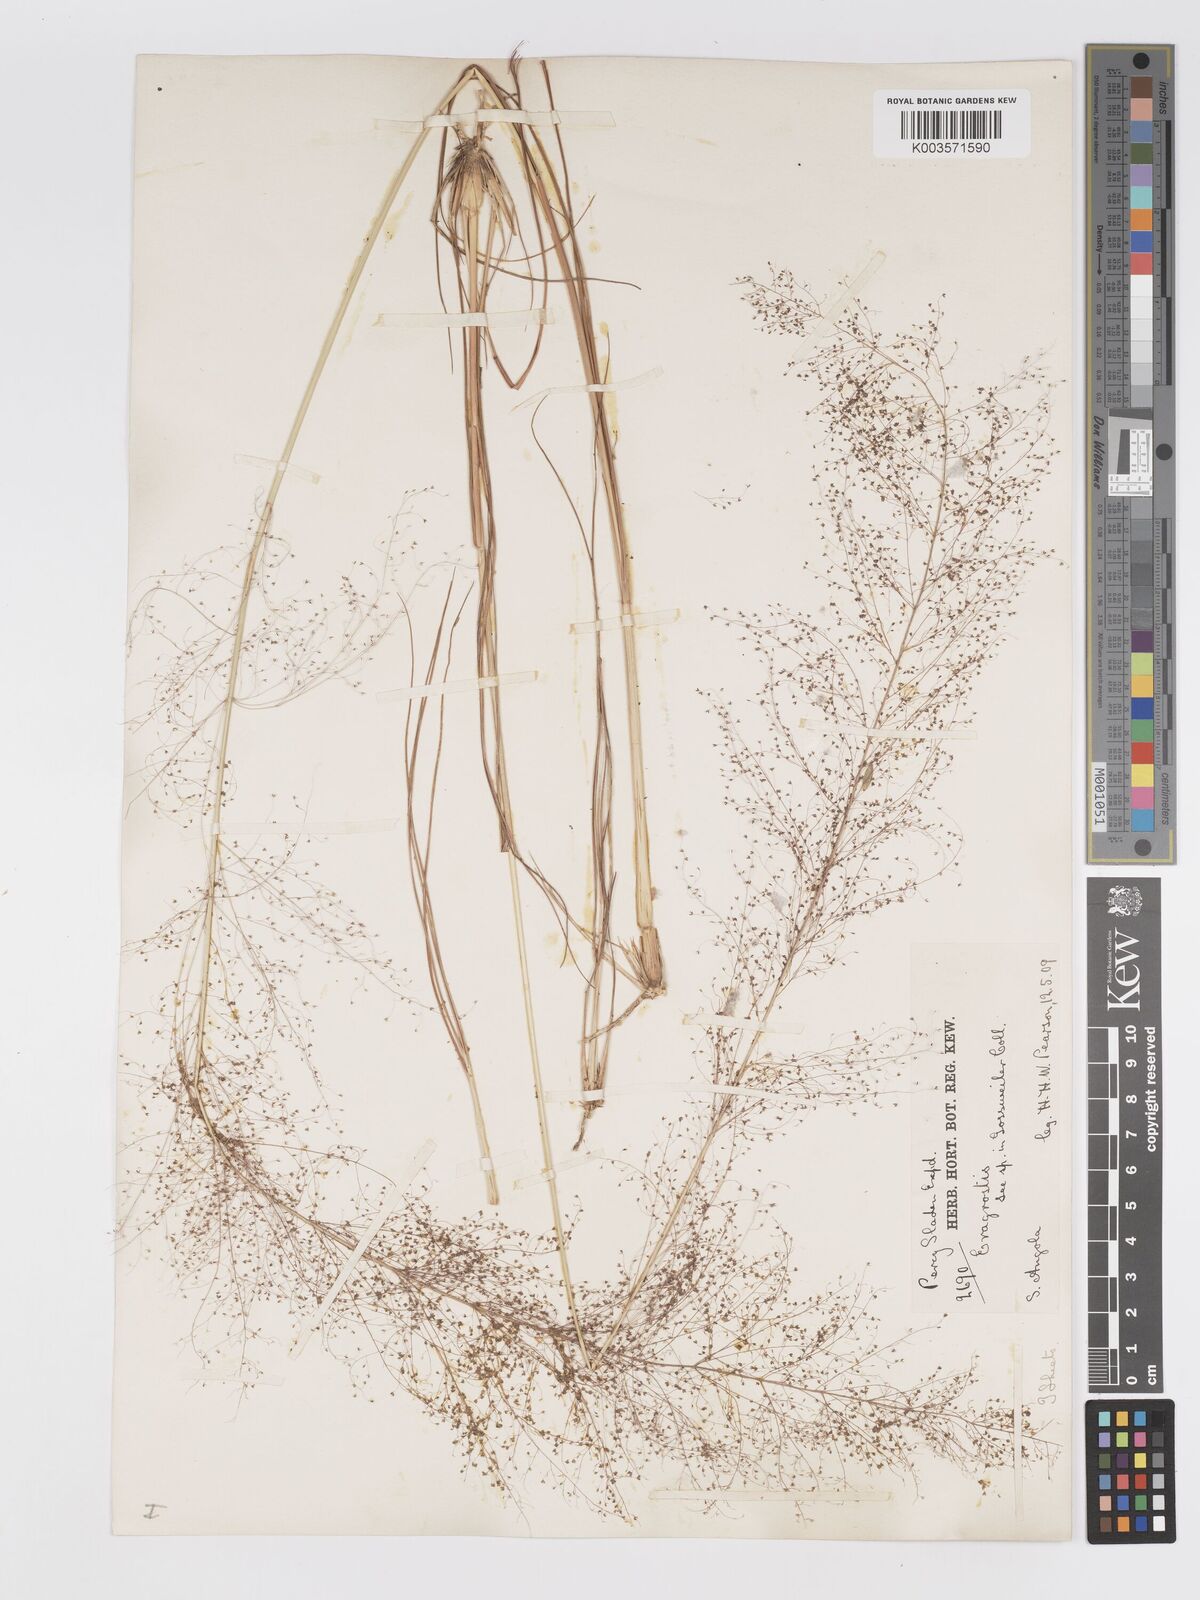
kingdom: Plantae
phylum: Tracheophyta
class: Liliopsida
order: Poales
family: Poaceae
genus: Eragrostis
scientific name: Eragrostis habrantha
